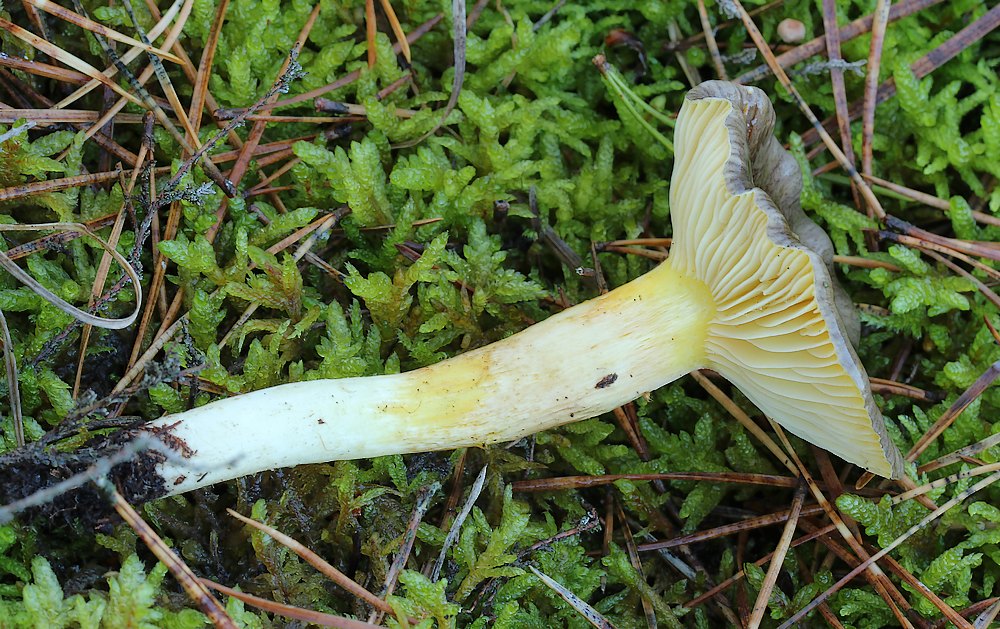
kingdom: Fungi
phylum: Basidiomycota
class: Agaricomycetes
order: Agaricales
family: Hygrophoraceae
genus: Hygrophorus
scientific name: Hygrophorus hypothejus
